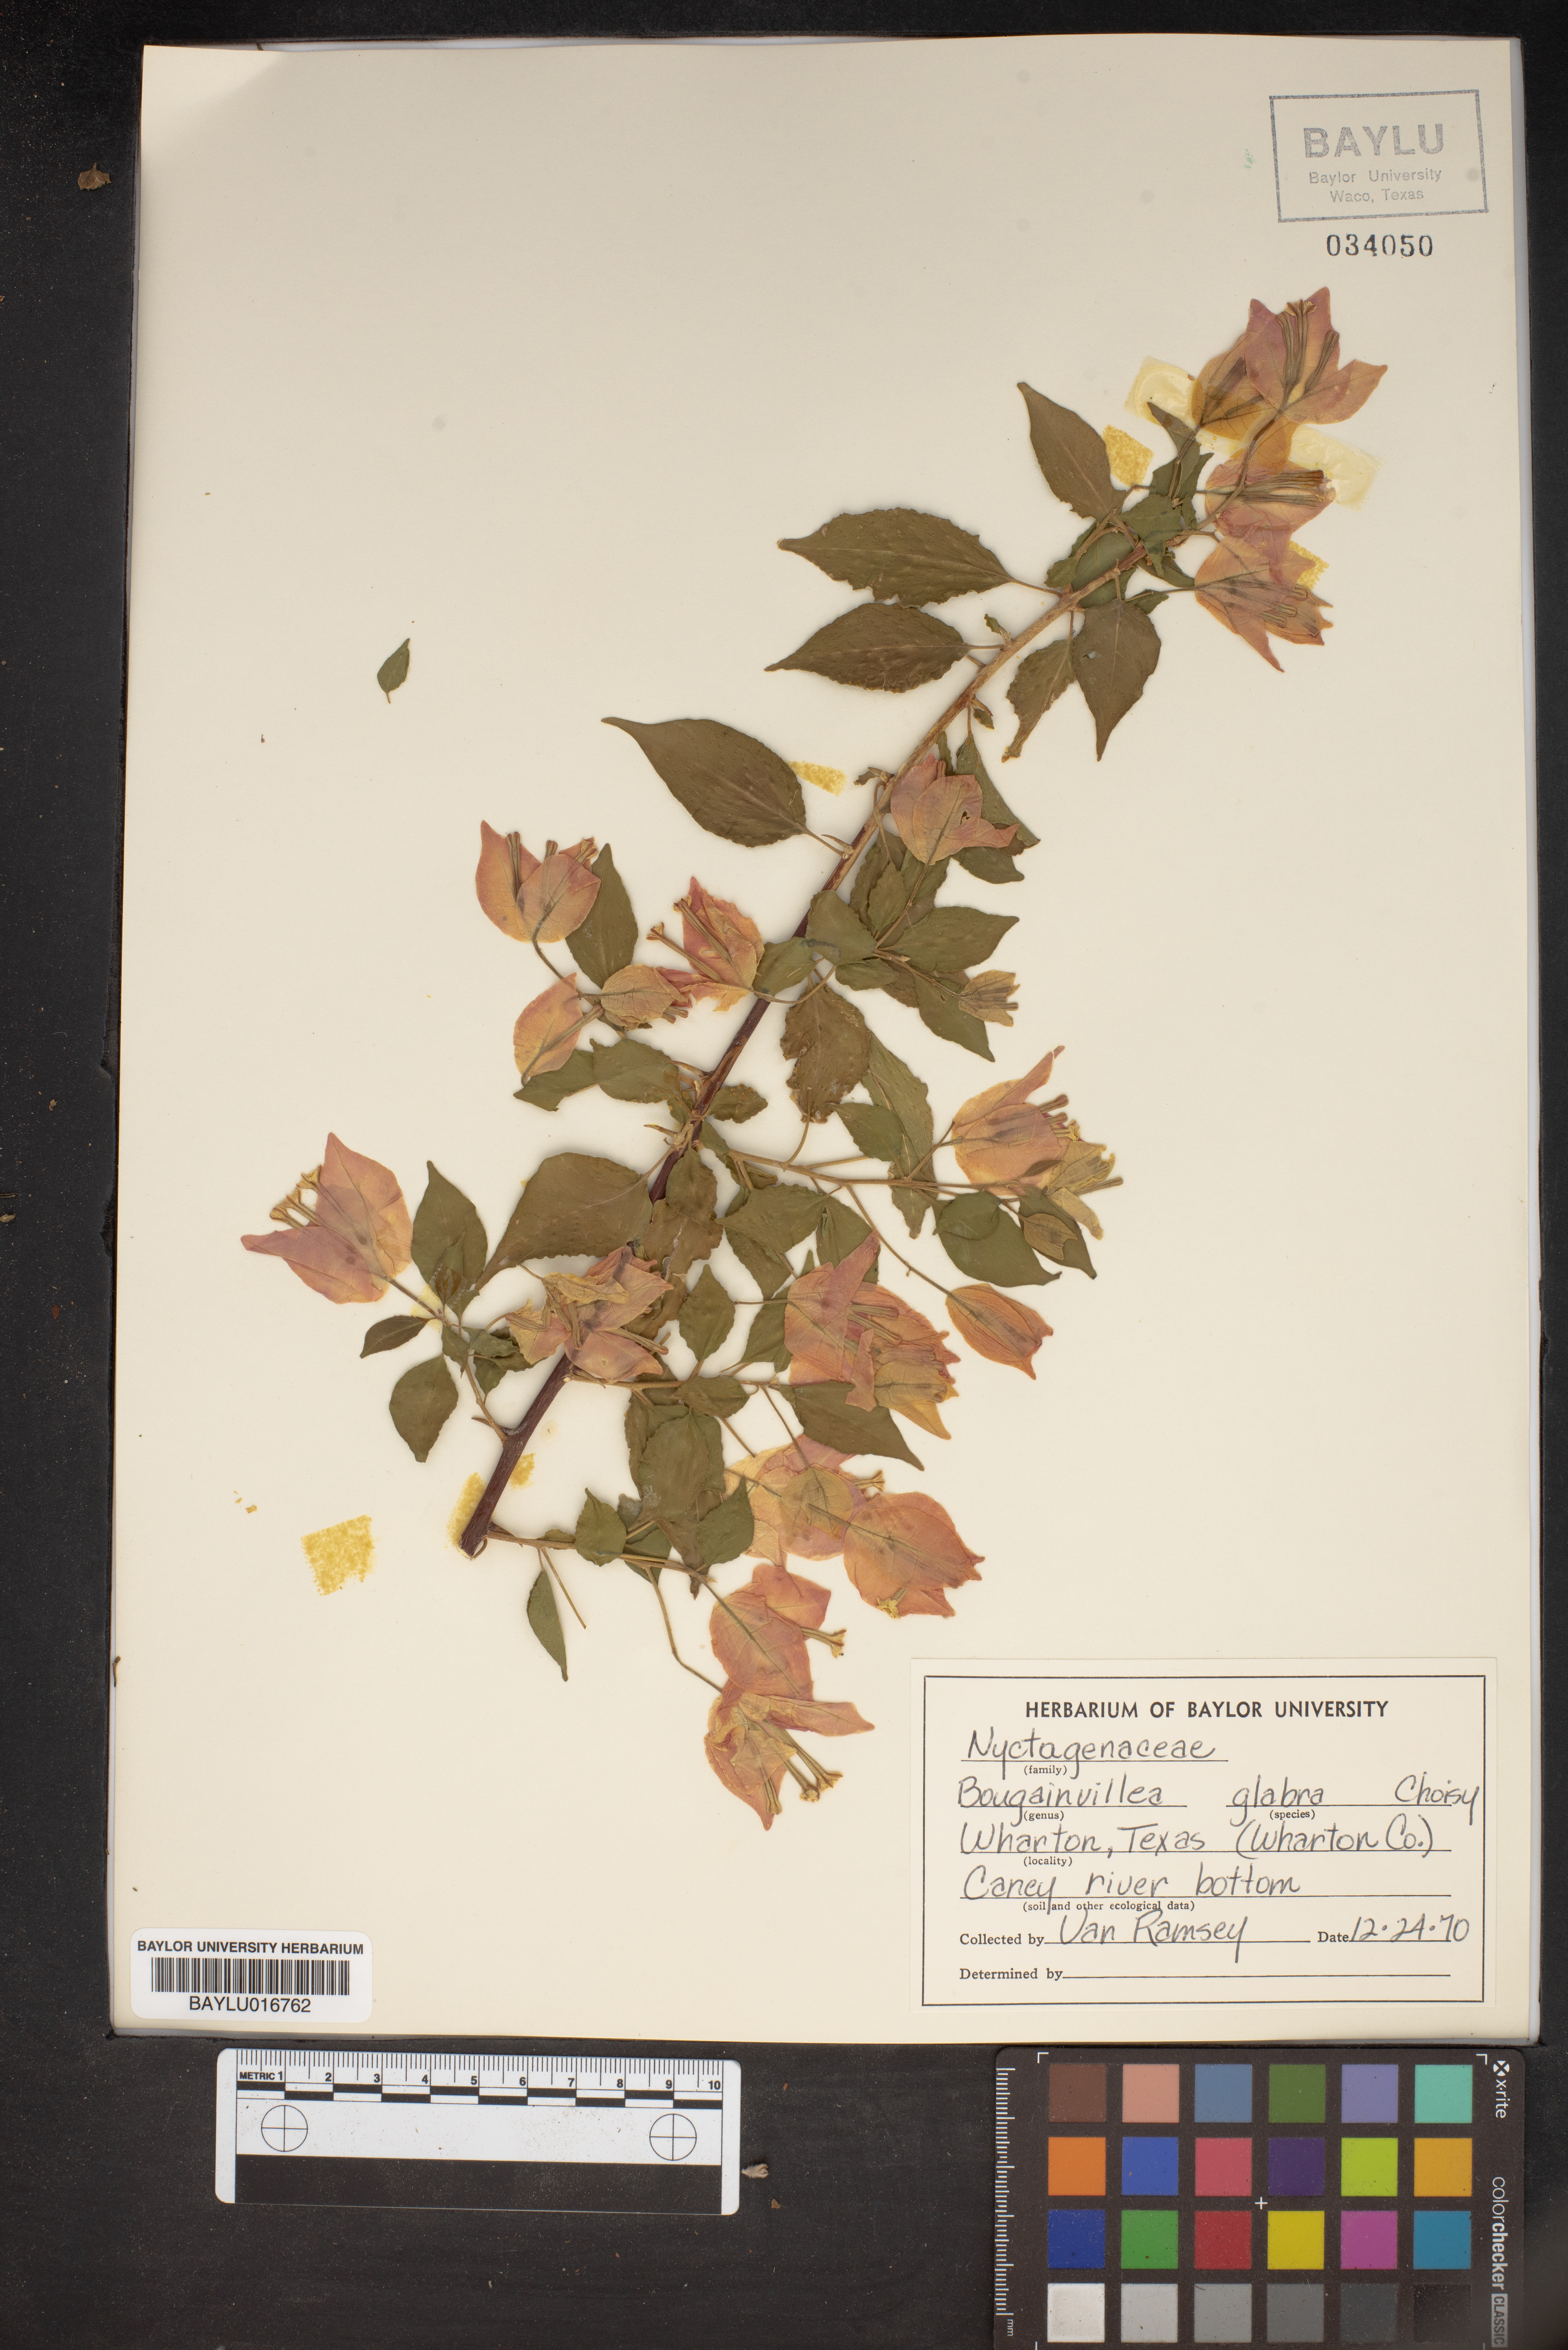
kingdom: Plantae
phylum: Tracheophyta
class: Magnoliopsida
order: Caryophyllales
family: Nyctaginaceae
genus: Bougainvillea
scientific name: Bougainvillea glabra
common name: Paperflower
